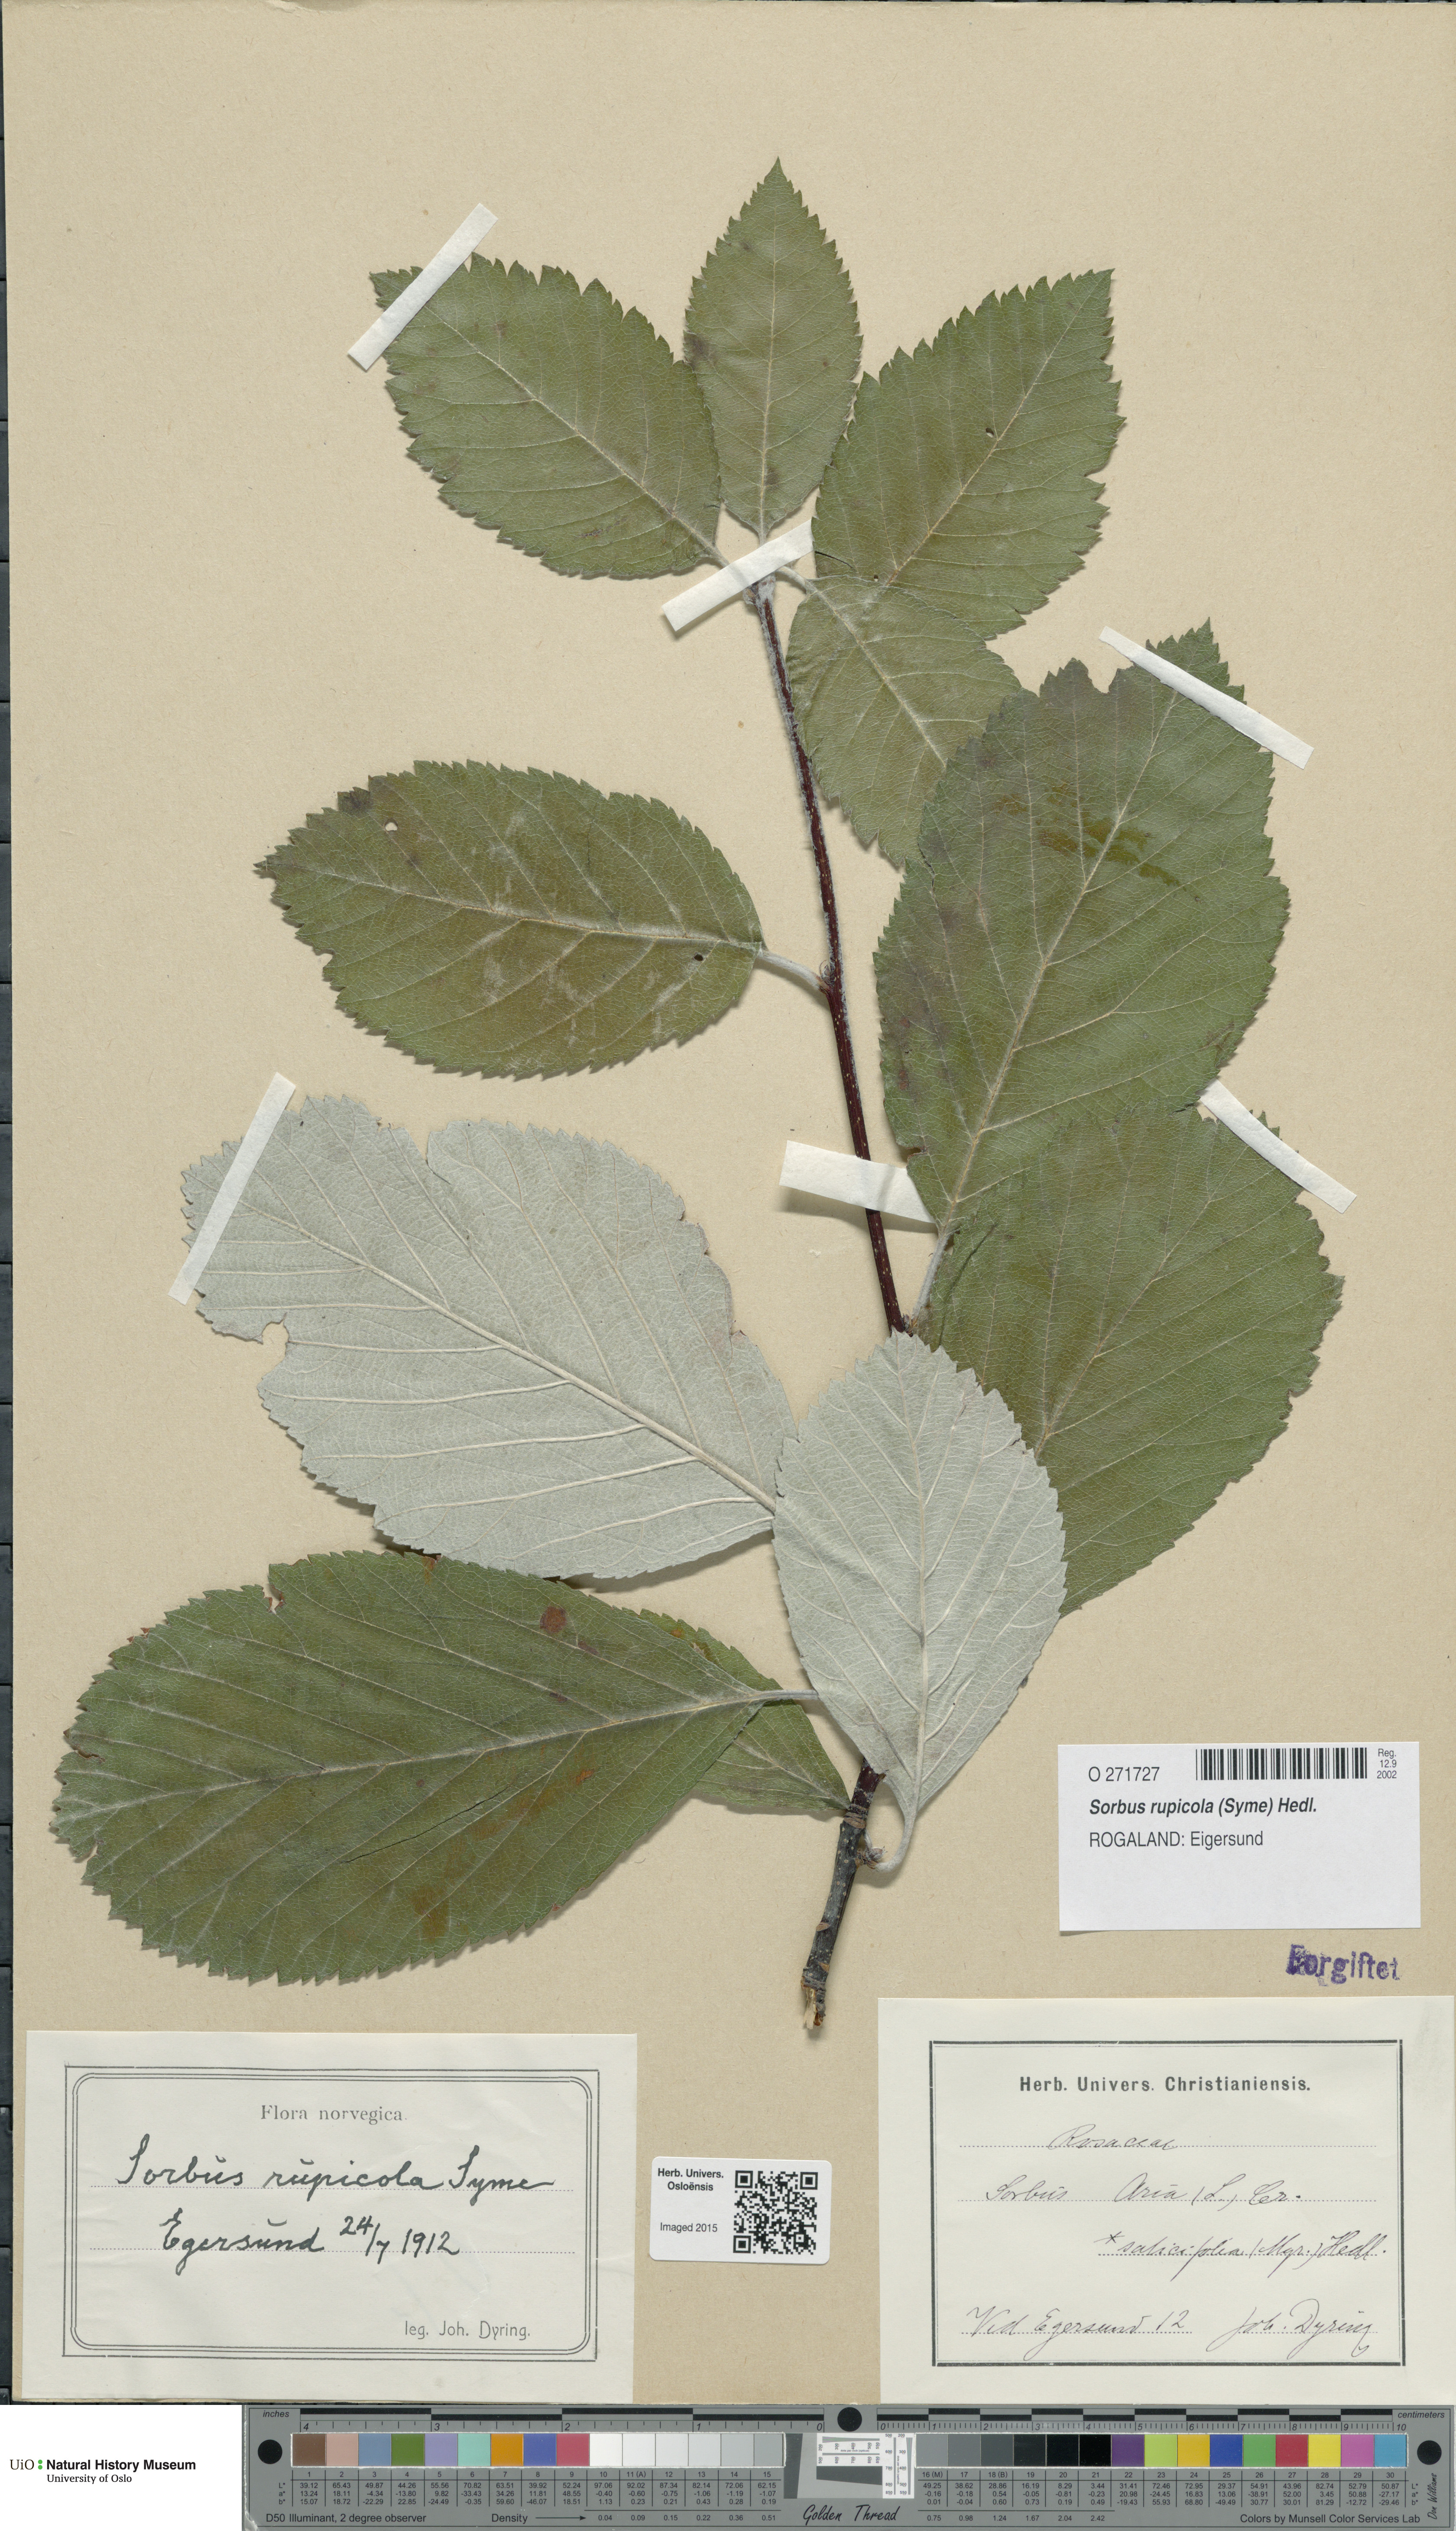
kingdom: Plantae
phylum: Tracheophyta
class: Magnoliopsida
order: Rosales
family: Rosaceae
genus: Aria
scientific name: Aria rupicola
